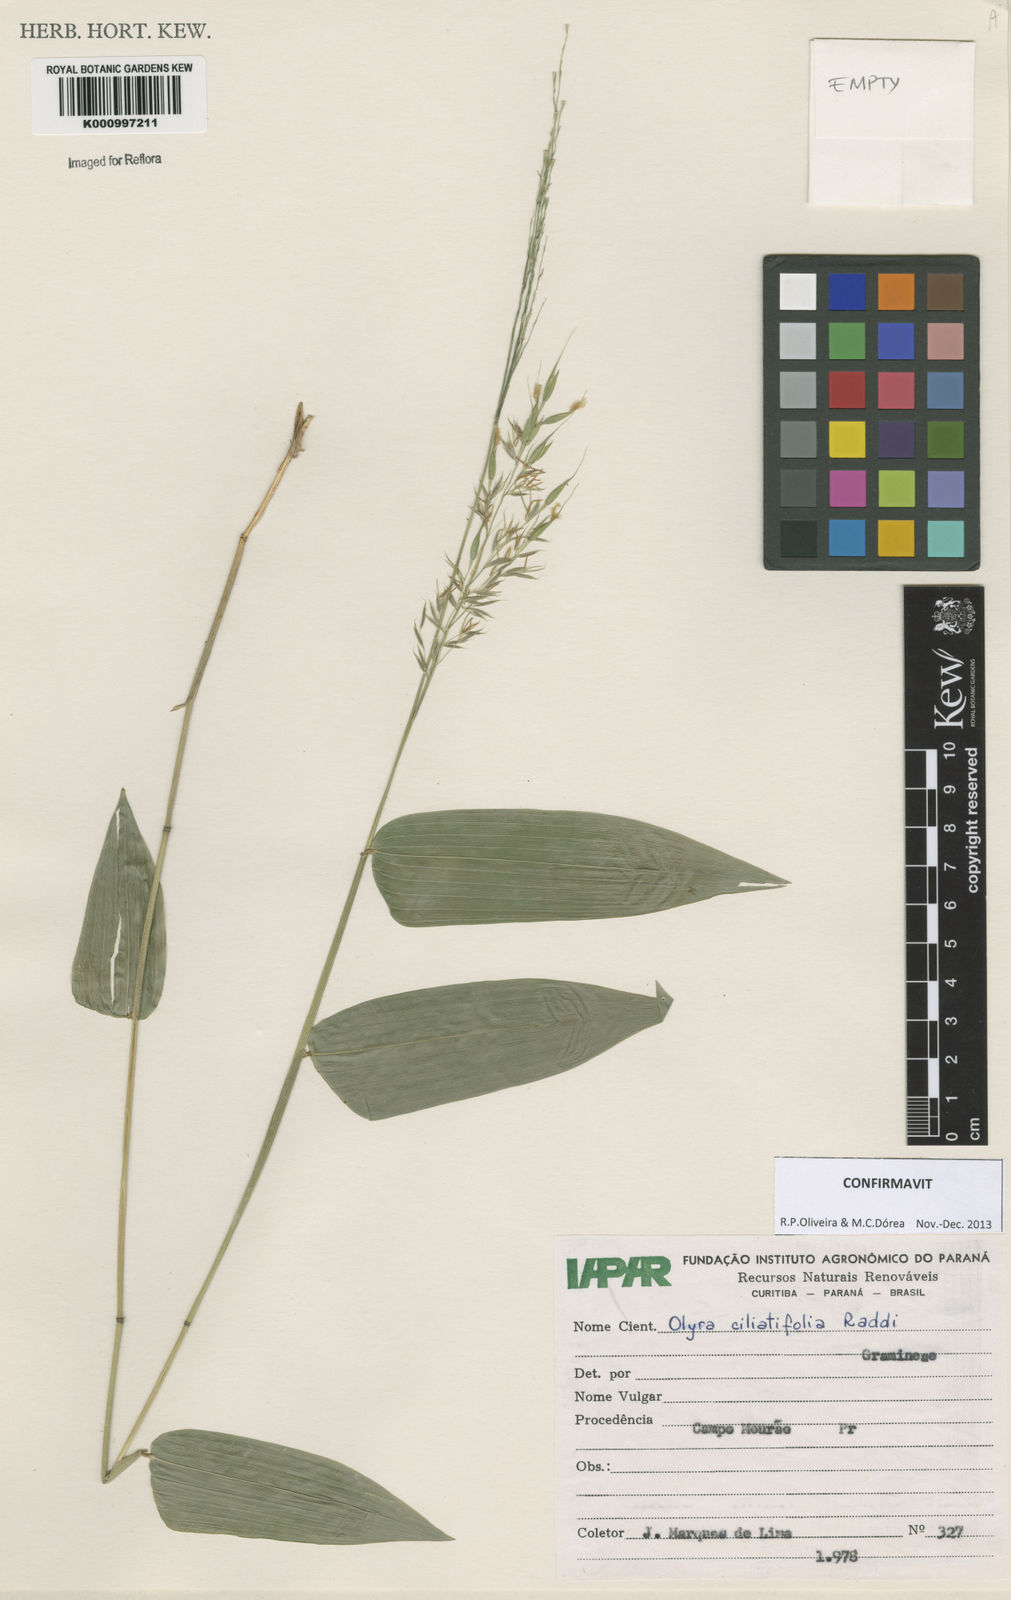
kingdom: Plantae
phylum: Tracheophyta
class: Liliopsida
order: Poales
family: Poaceae
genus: Olyra
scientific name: Olyra ciliatifolia
